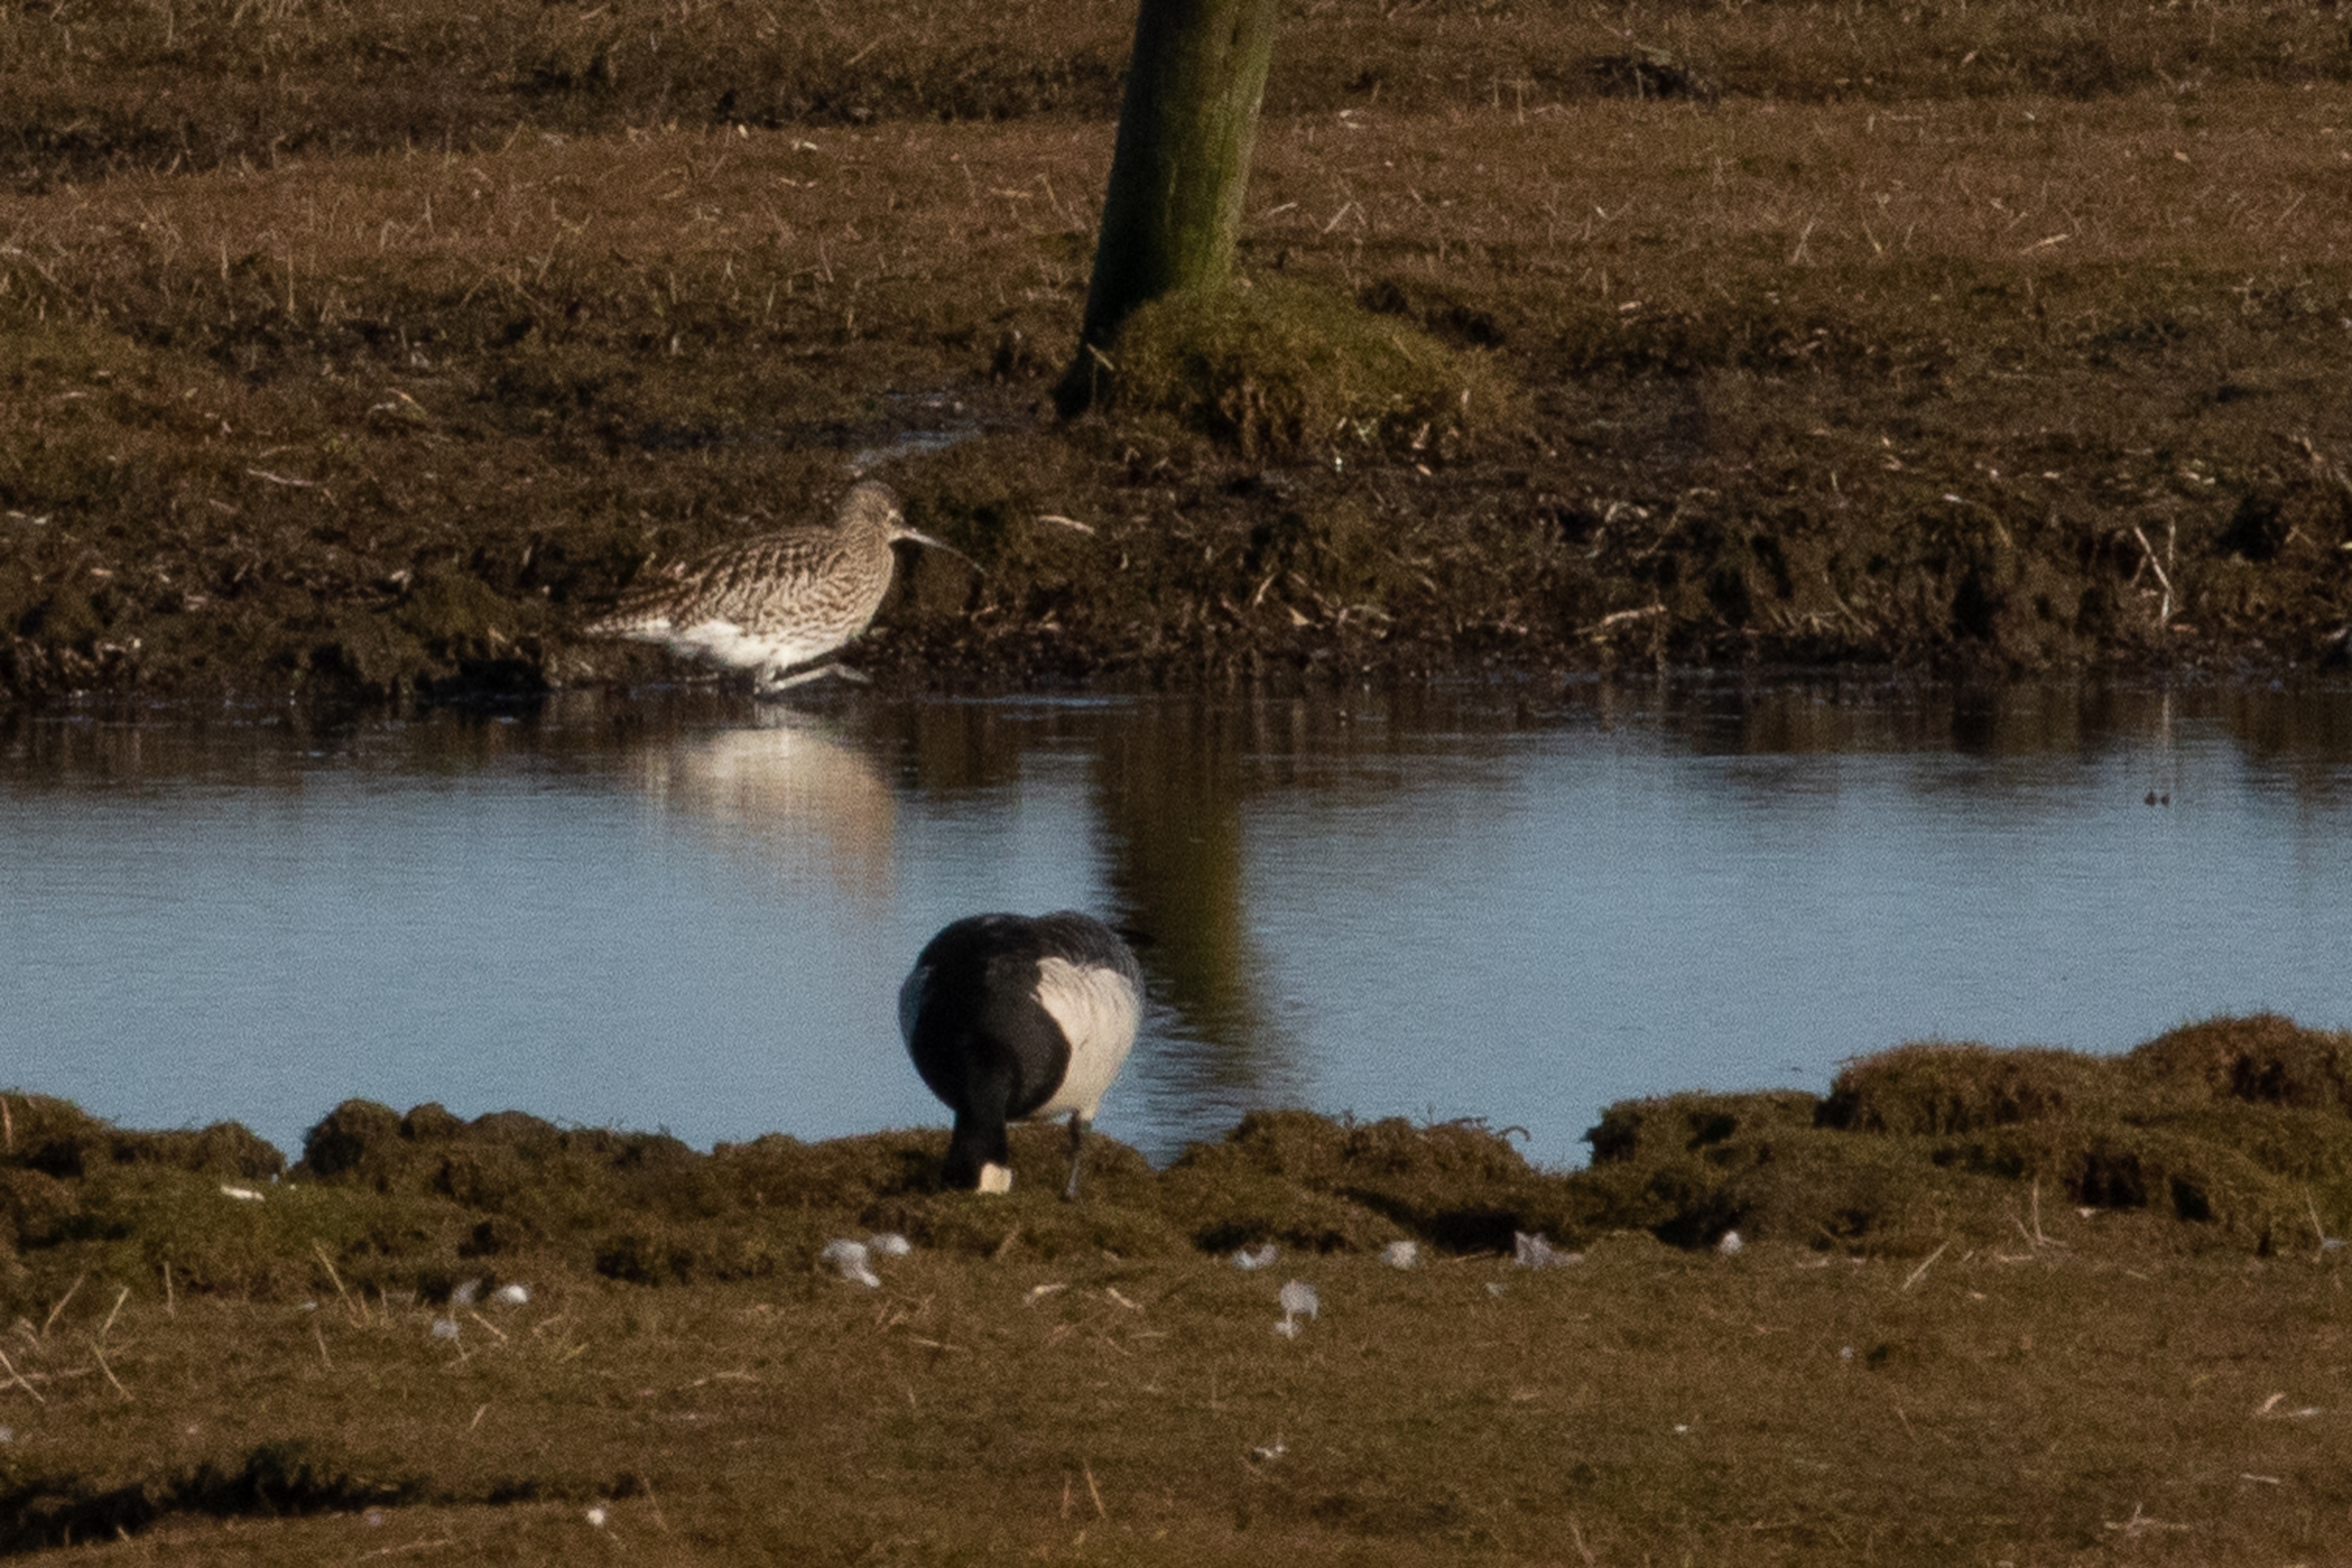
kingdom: Animalia
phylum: Chordata
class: Aves
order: Charadriiformes
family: Scolopacidae
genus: Numenius
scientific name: Numenius arquata
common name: Storspove
